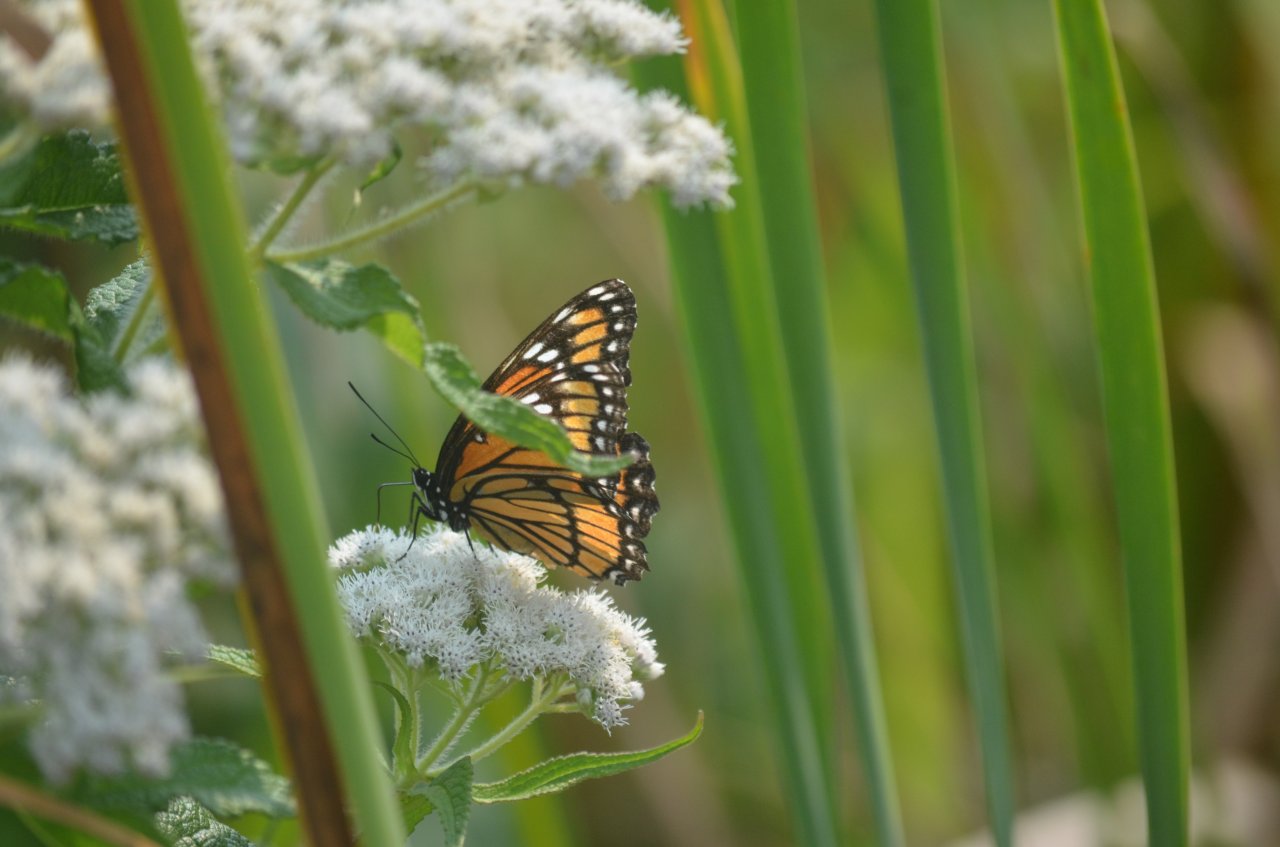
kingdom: Animalia
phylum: Arthropoda
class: Insecta
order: Lepidoptera
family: Nymphalidae
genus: Limenitis
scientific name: Limenitis archippus
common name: Viceroy
